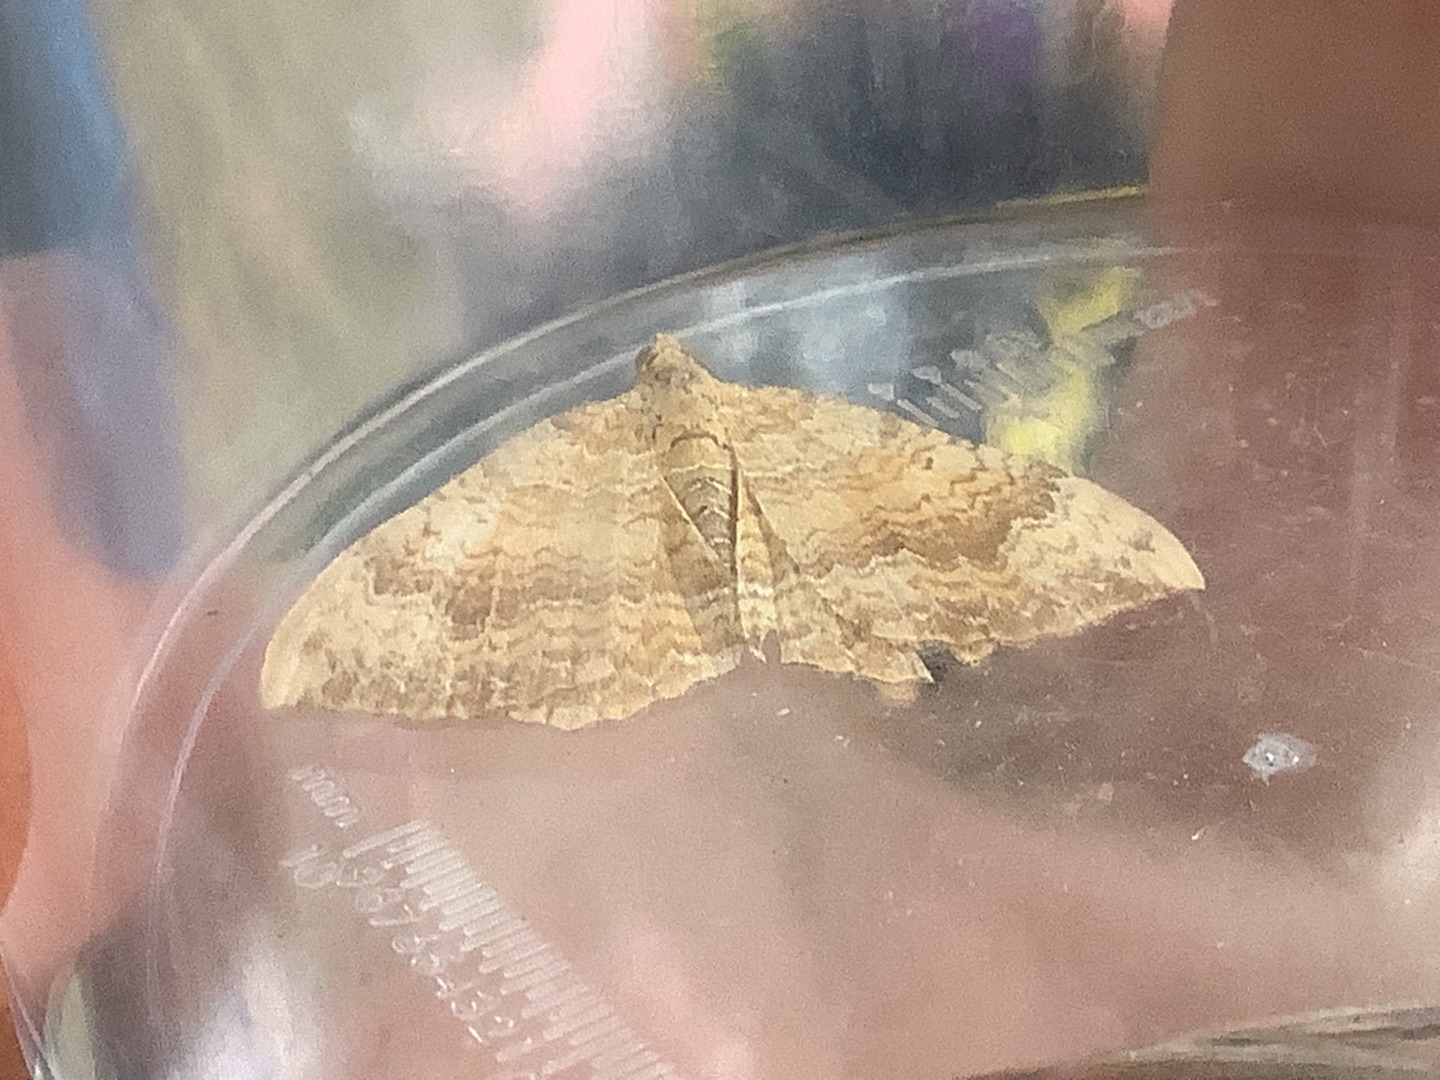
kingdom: Animalia
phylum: Arthropoda
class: Insecta
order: Lepidoptera
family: Geometridae
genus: Camptogramma
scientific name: Camptogramma bilineata
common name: Okkergul bladmåler
